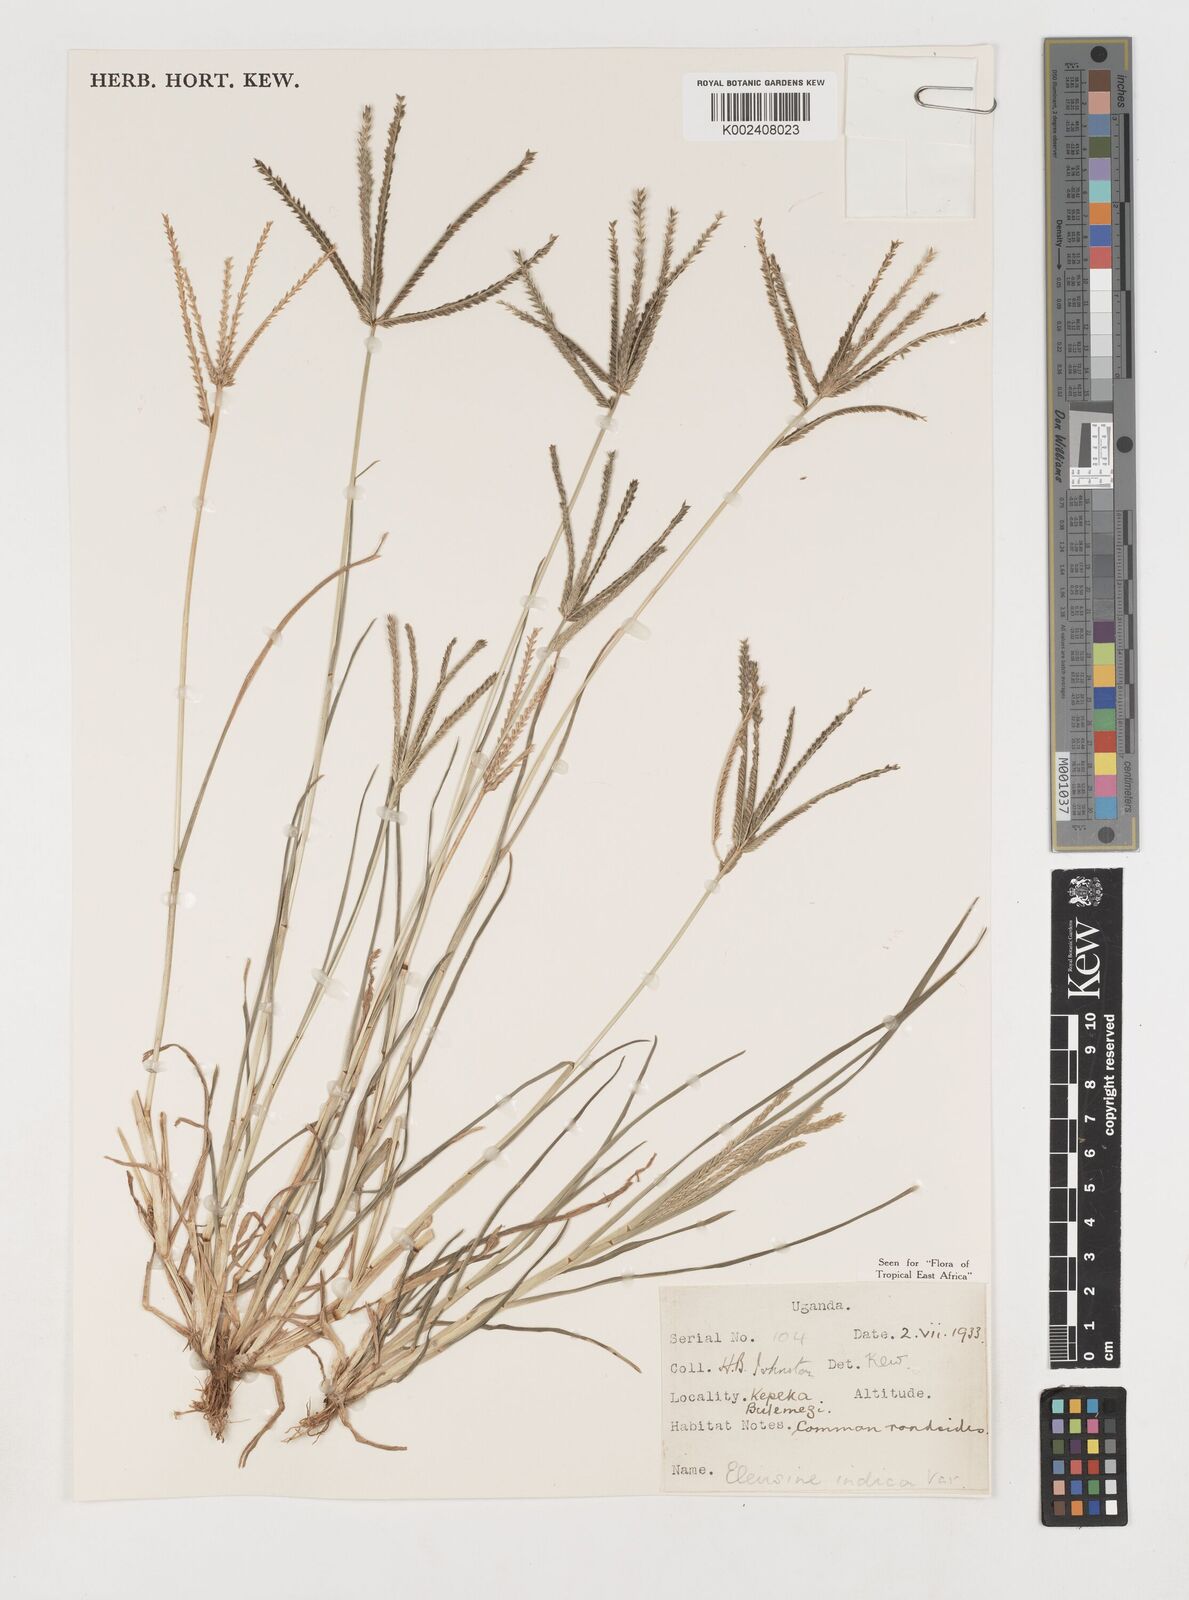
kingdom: Plantae
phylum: Tracheophyta
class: Liliopsida
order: Poales
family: Poaceae
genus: Eleusine
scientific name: Eleusine indica
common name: Yard-grass
